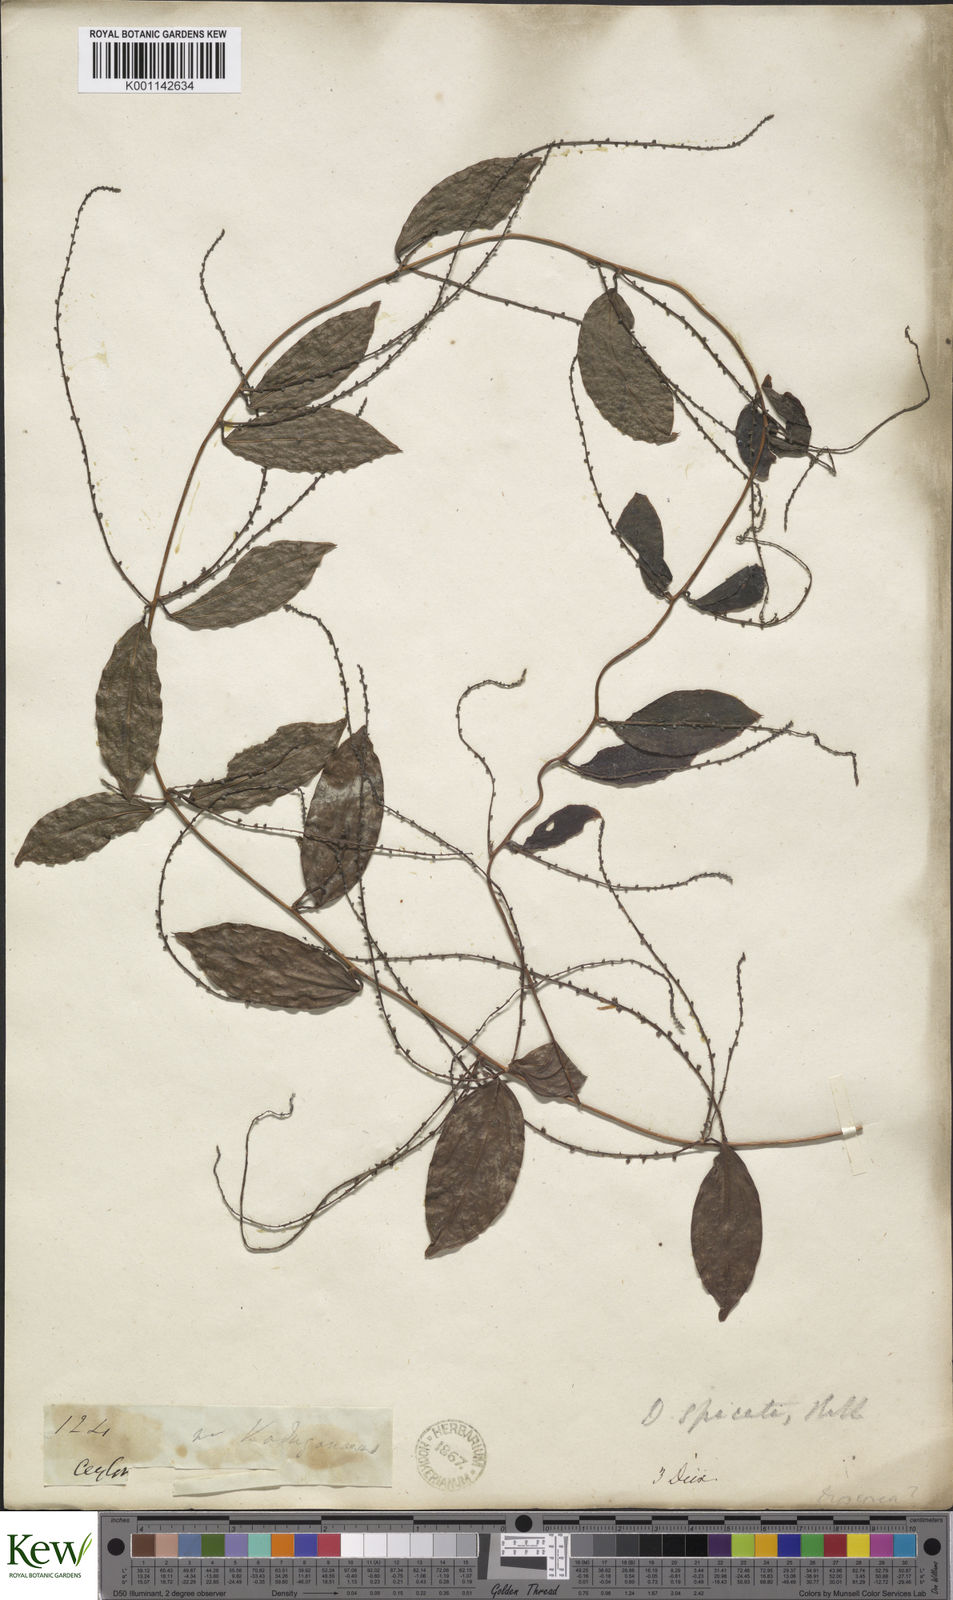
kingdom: Plantae
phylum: Tracheophyta
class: Liliopsida
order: Dioscoreales
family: Dioscoreaceae
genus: Dioscorea
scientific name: Dioscorea spicata
